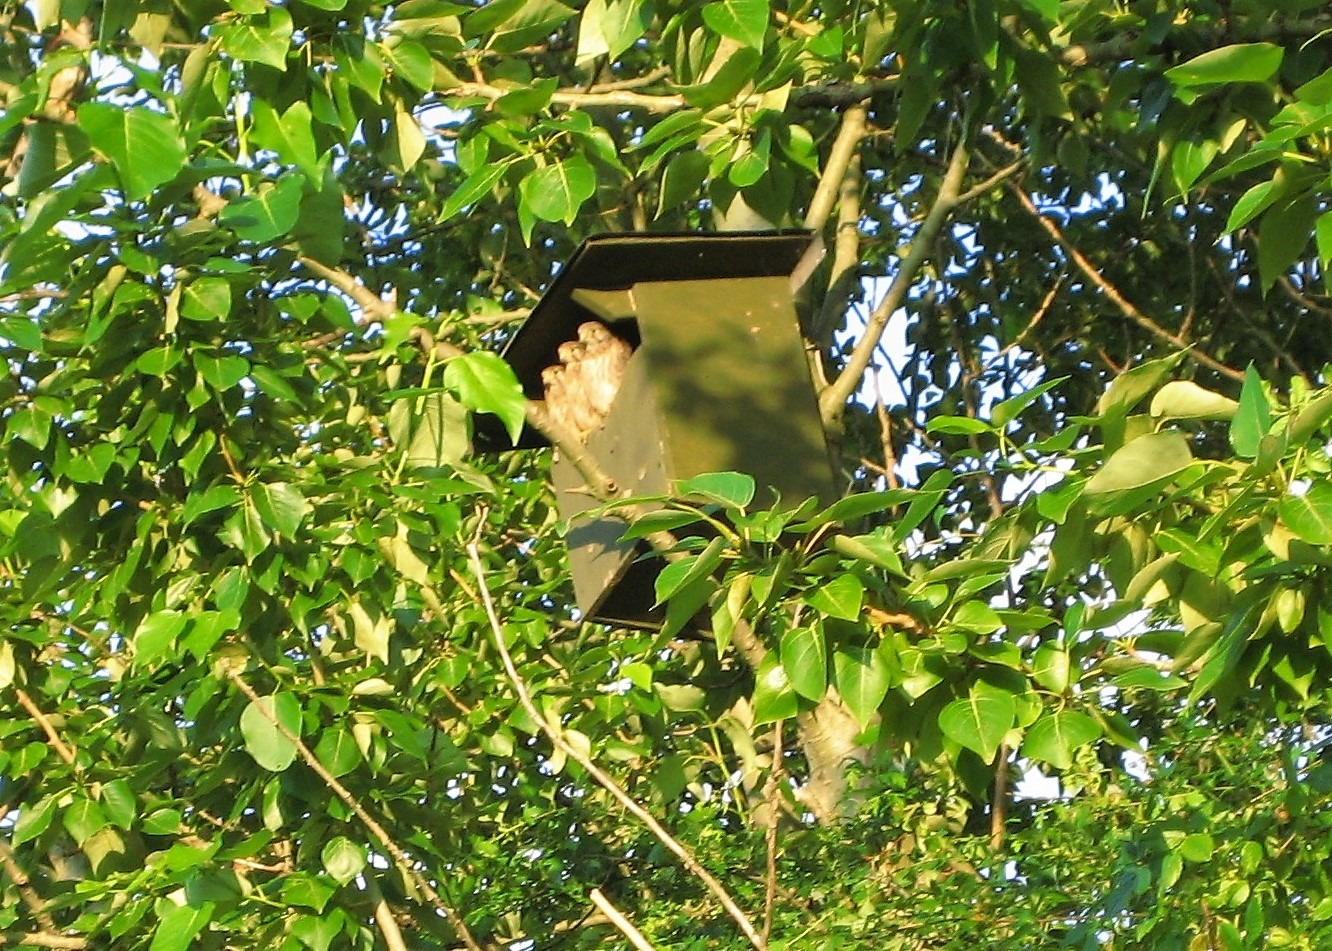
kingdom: Animalia
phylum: Chordata
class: Aves
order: Falconiformes
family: Falconidae
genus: Falco
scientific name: Falco tinnunculus
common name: Tårnfalk
